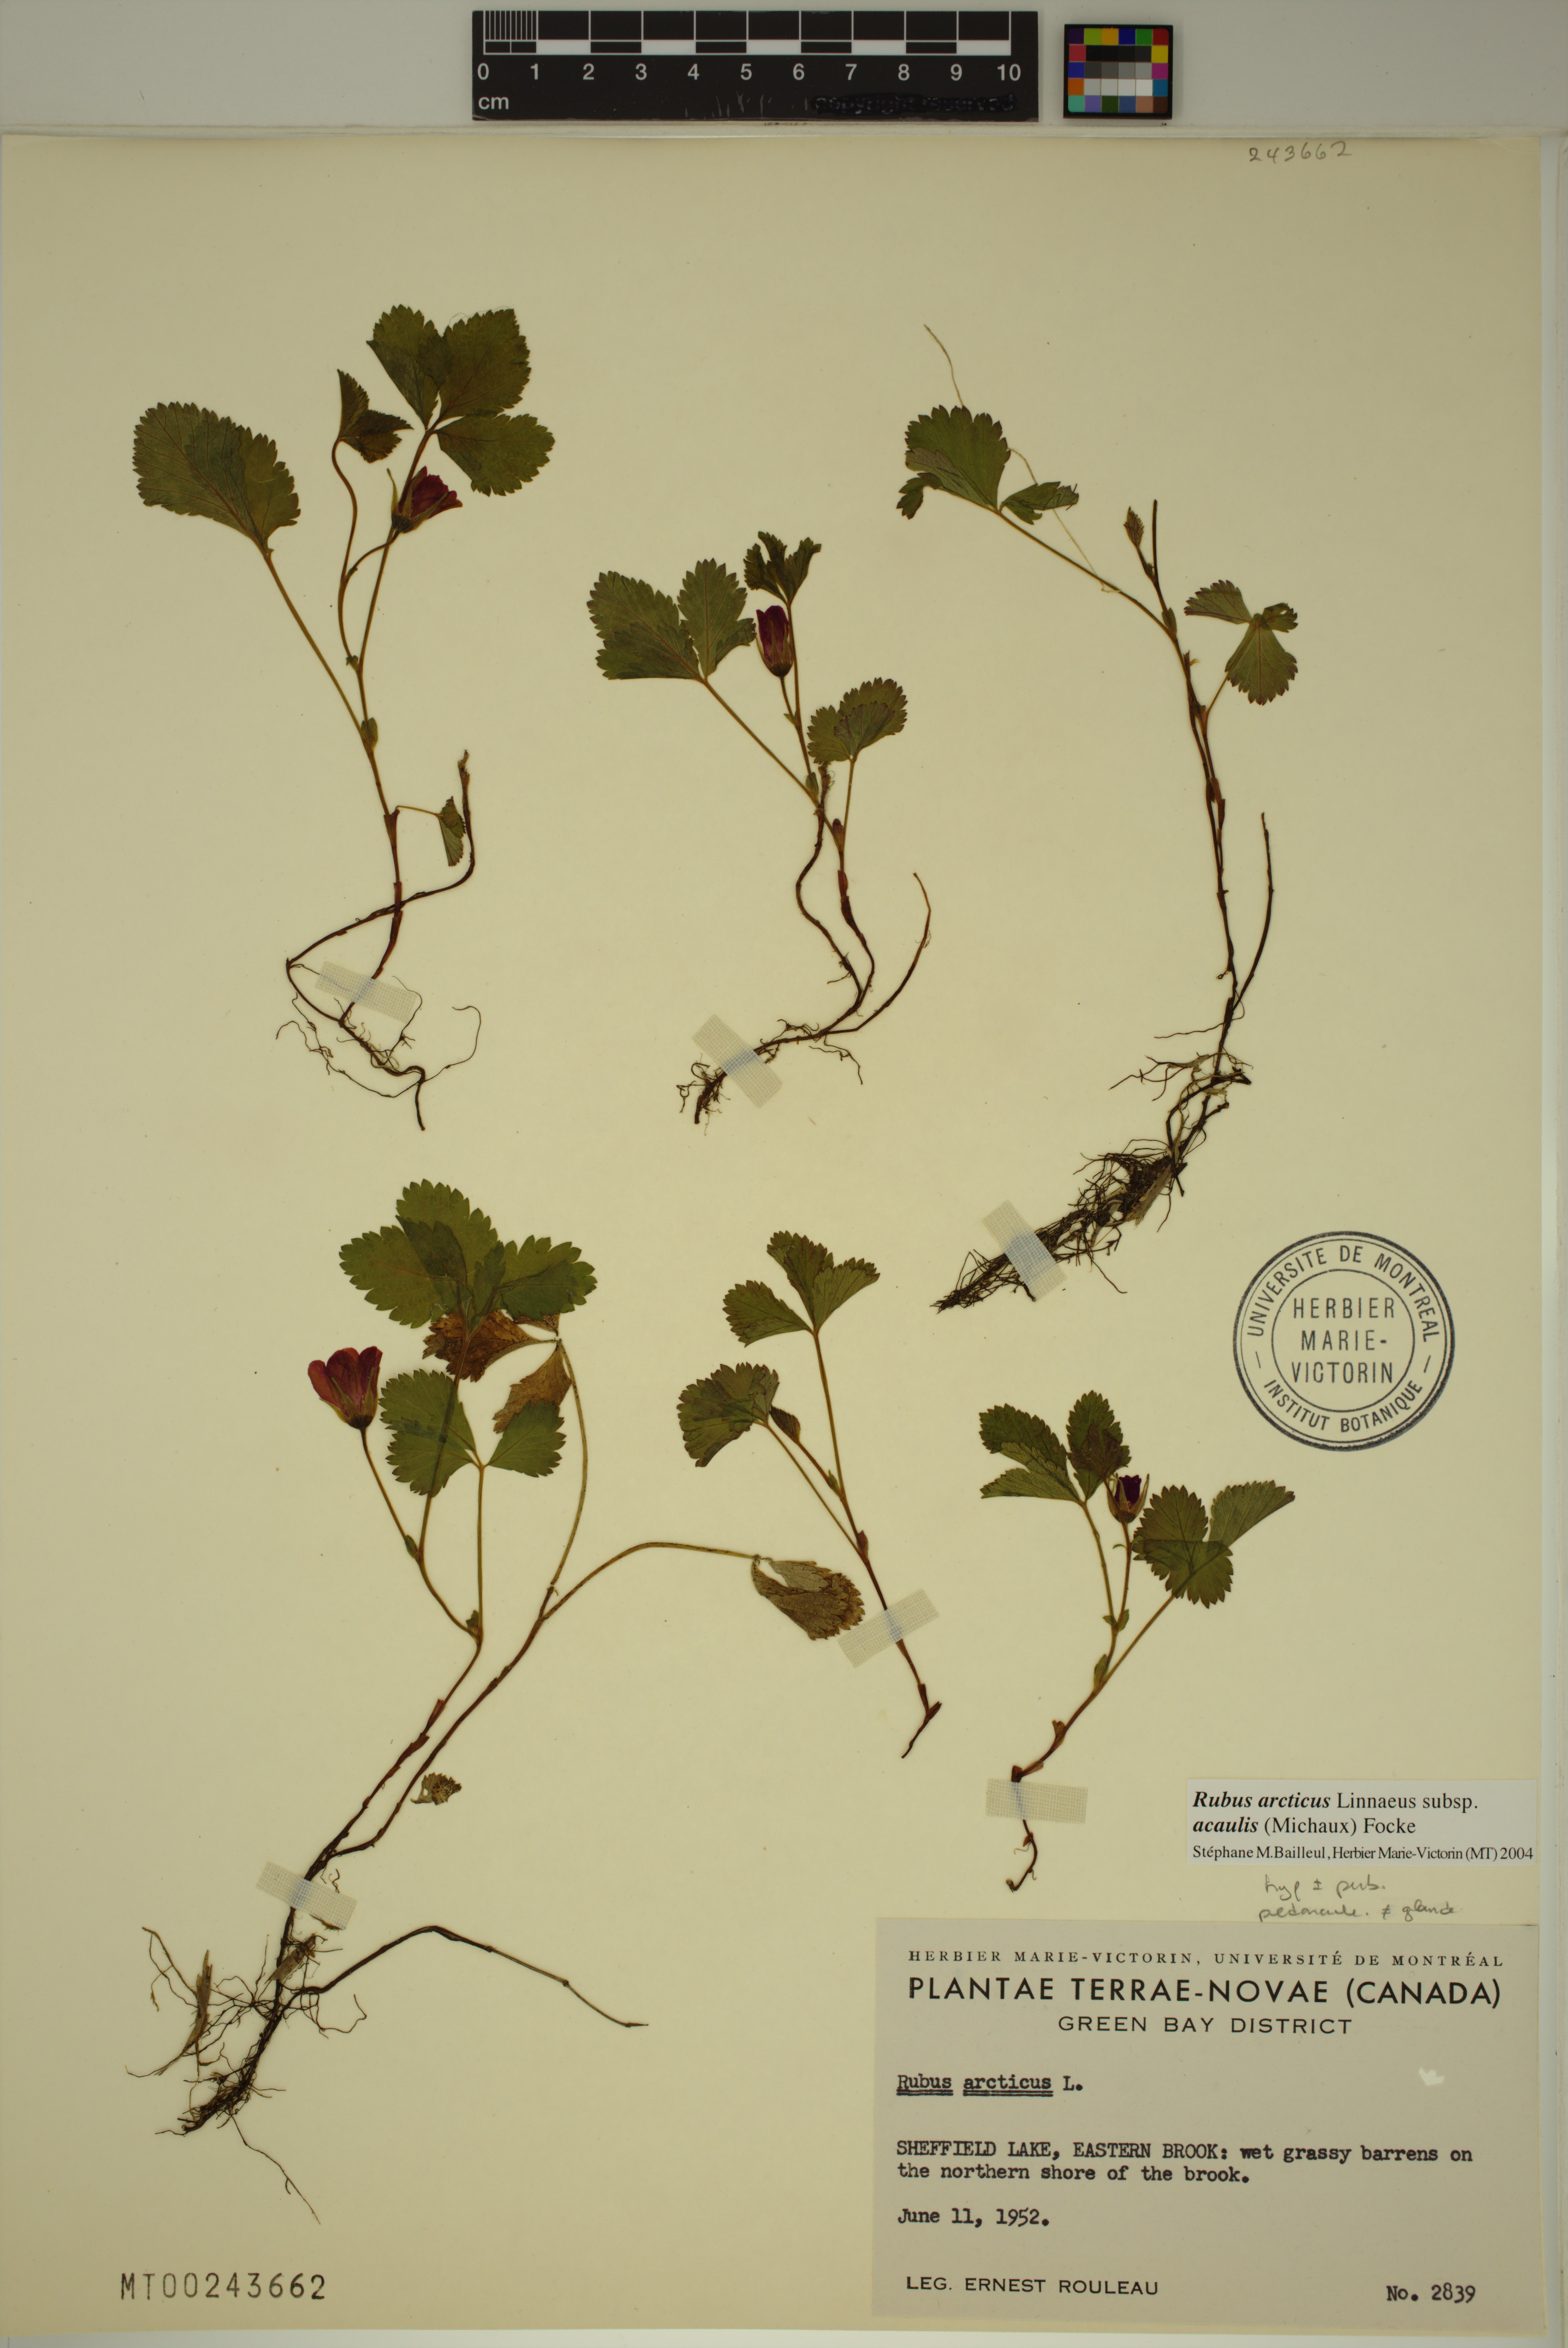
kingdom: Plantae
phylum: Tracheophyta
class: Magnoliopsida
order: Rosales
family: Rosaceae
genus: Rubus
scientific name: Rubus arcticus
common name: Arctic bramble
